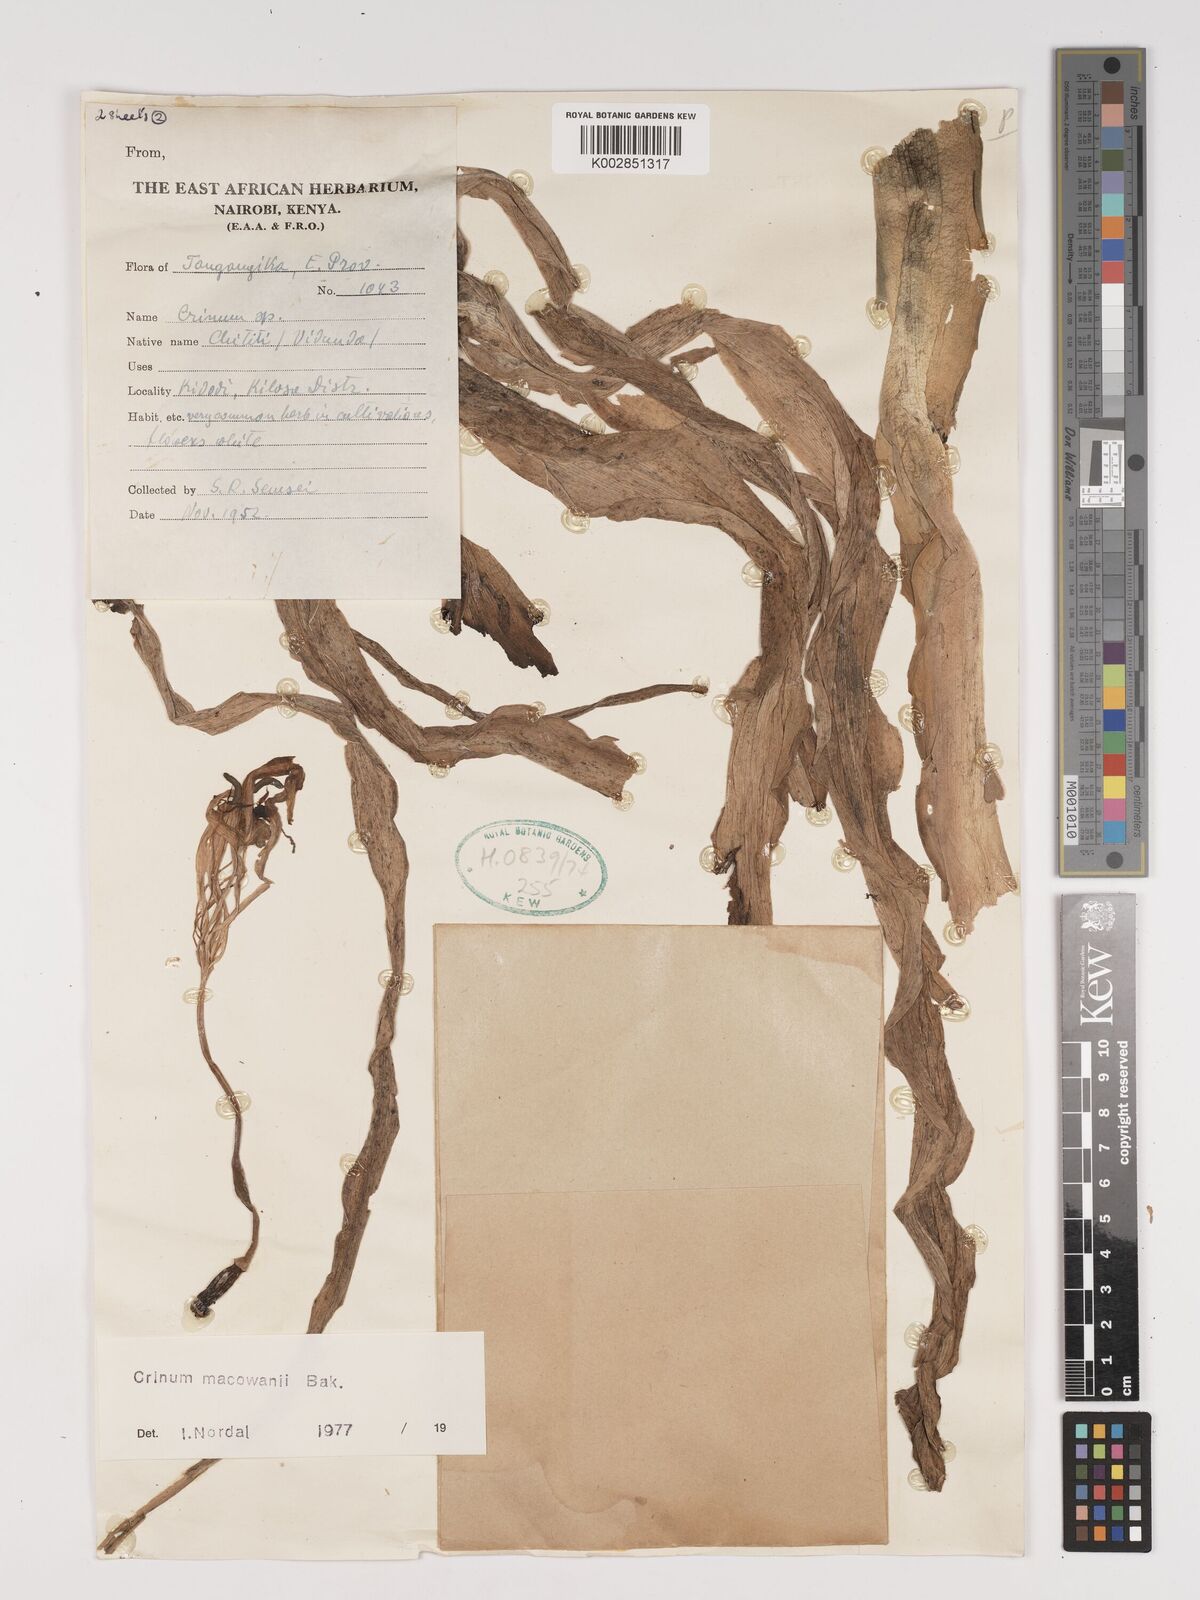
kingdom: Plantae
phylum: Tracheophyta
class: Liliopsida
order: Asparagales
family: Amaryllidaceae
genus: Crinum
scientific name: Crinum macowanii
